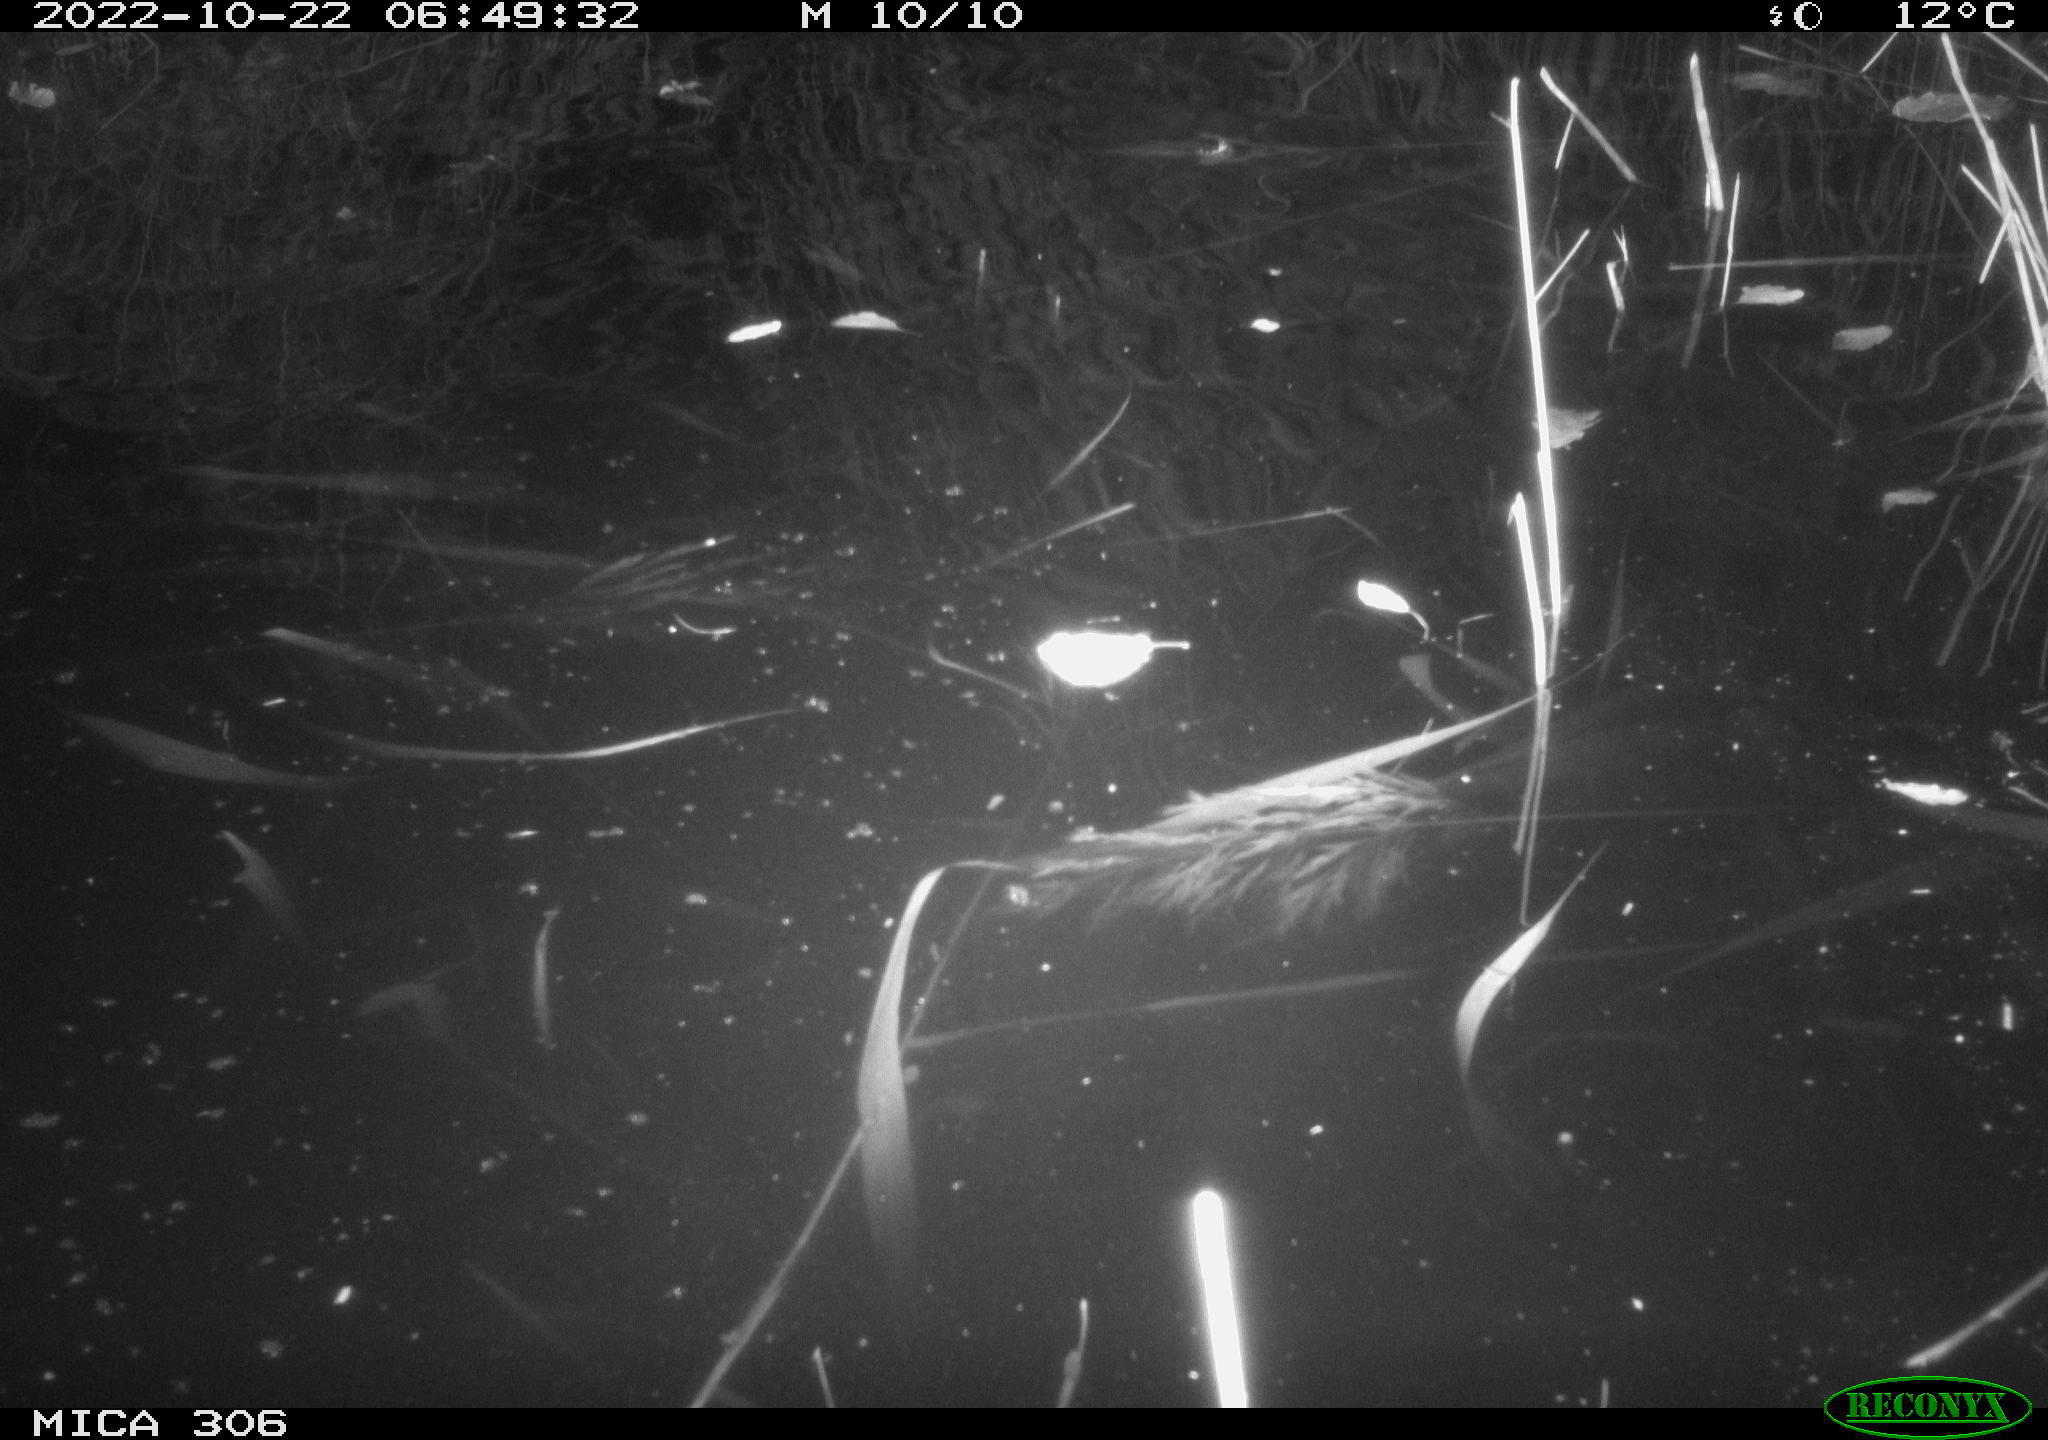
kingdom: Animalia
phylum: Chordata
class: Mammalia
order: Rodentia
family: Muridae
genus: Rattus
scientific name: Rattus norvegicus
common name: Brown rat
